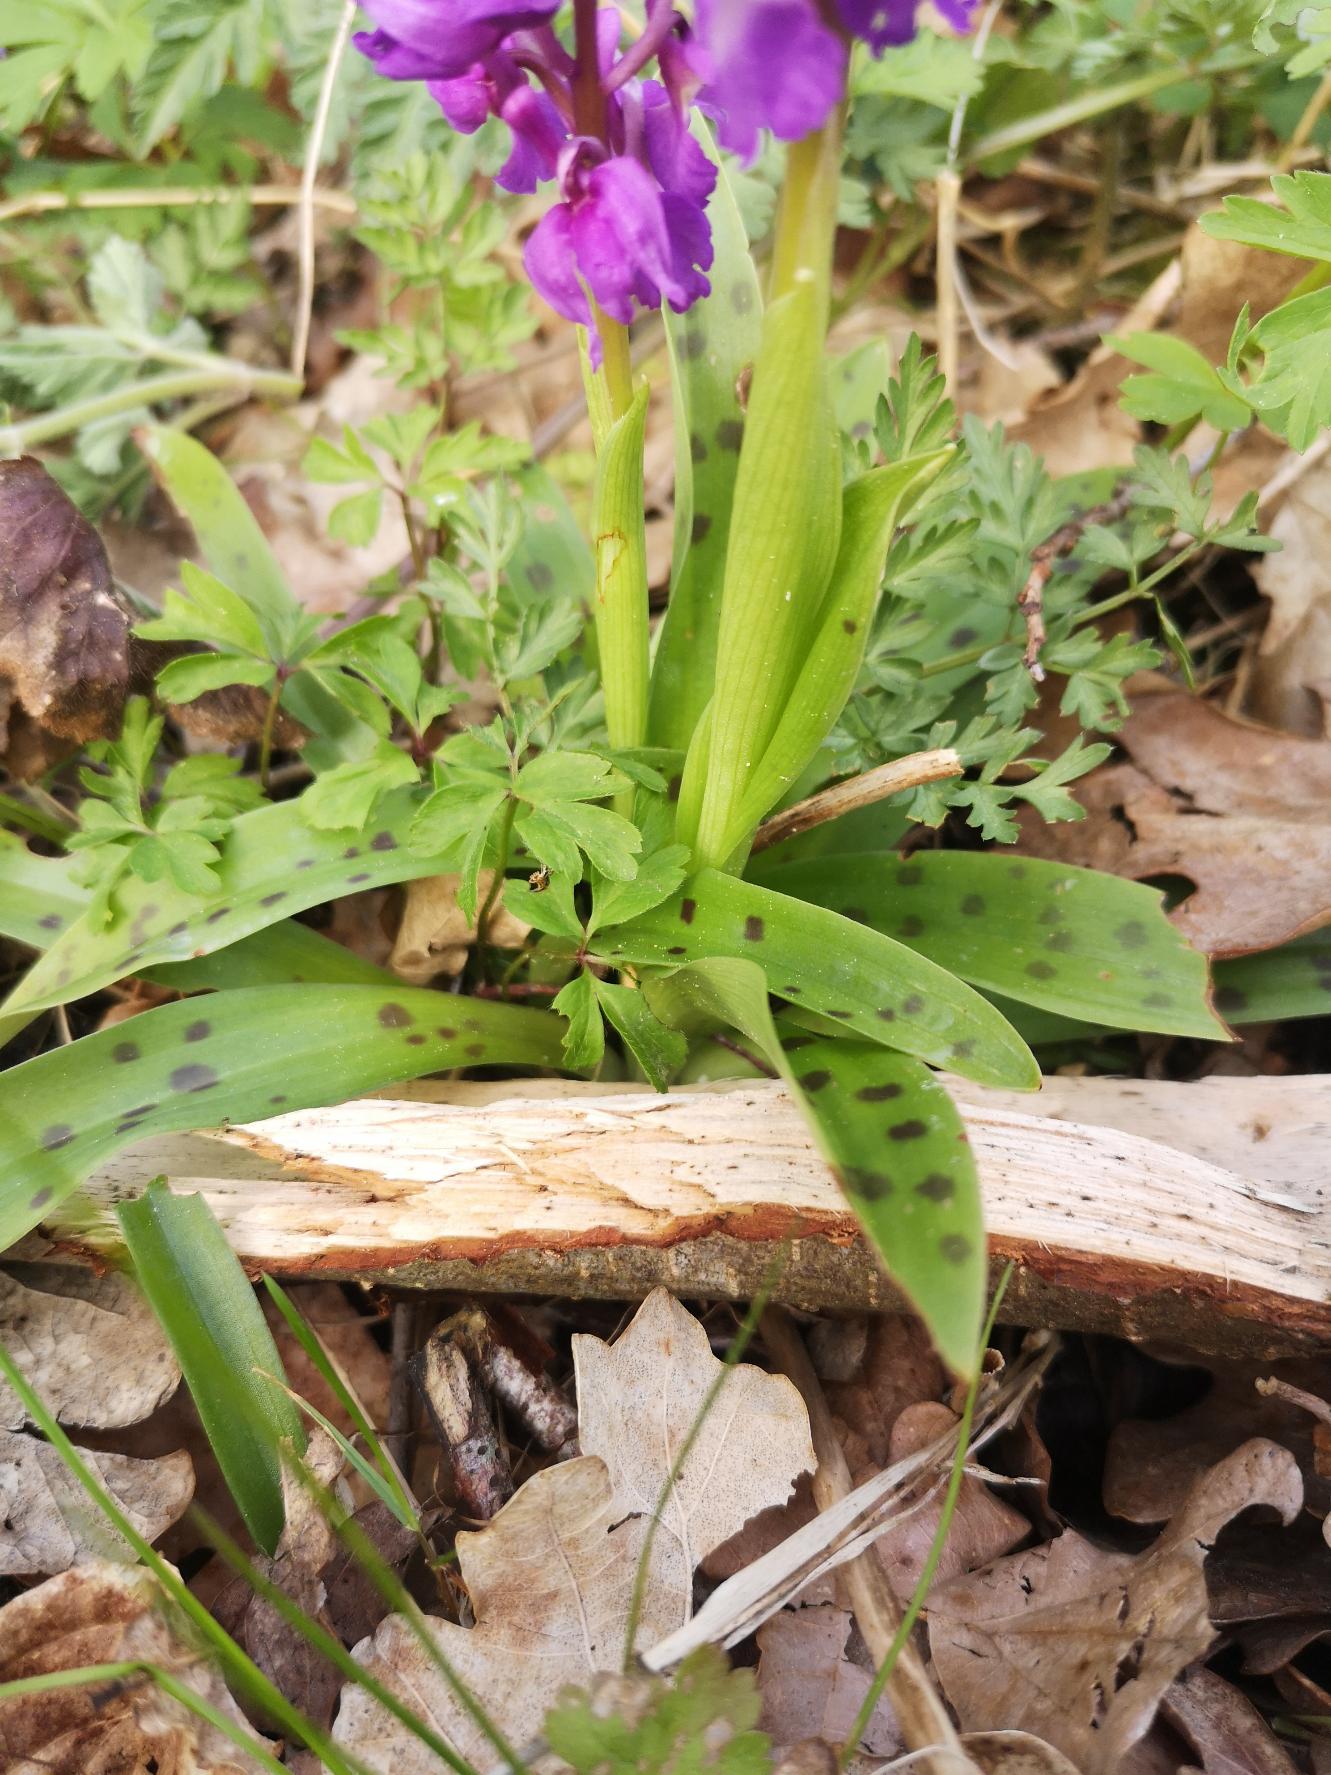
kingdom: Plantae
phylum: Tracheophyta
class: Liliopsida
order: Asparagales
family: Orchidaceae
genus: Orchis
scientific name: Orchis mascula
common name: Tyndakset gøgeurt
